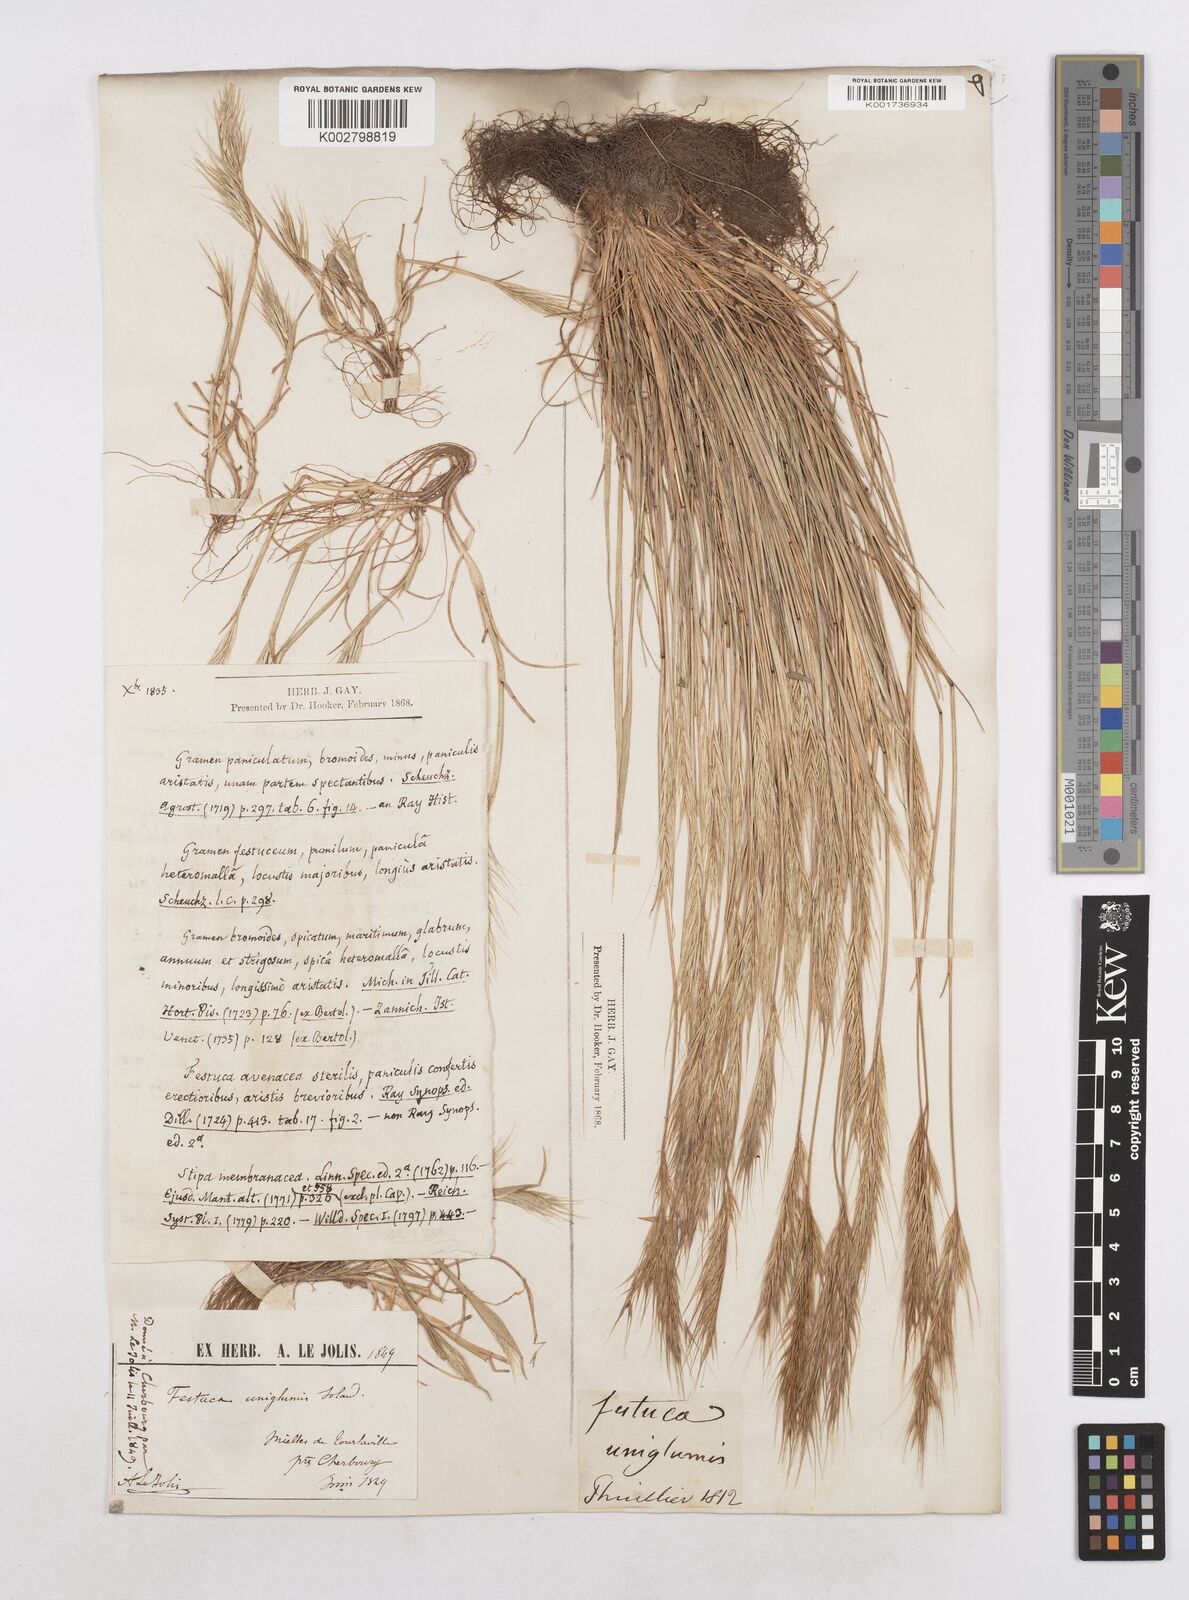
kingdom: Plantae
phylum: Tracheophyta
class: Liliopsida
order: Poales
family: Poaceae
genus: Festuca
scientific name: Festuca membranacea
